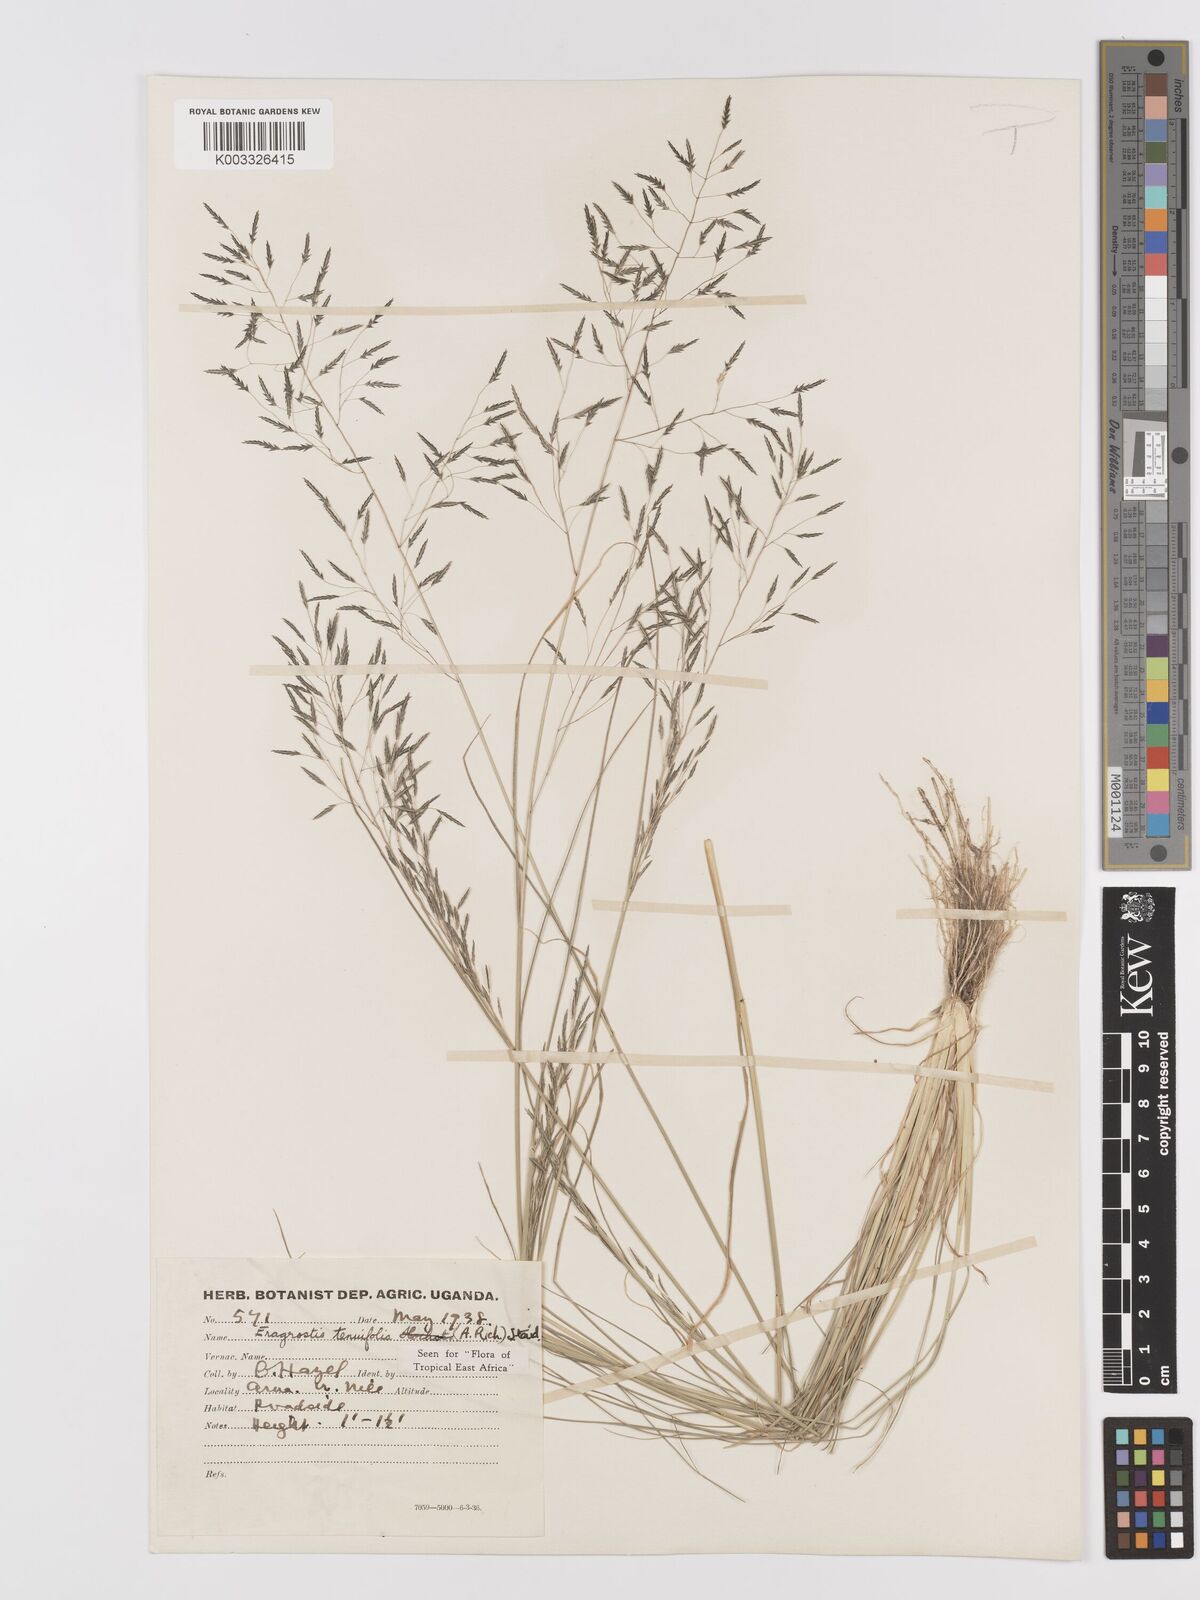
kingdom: Plantae
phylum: Tracheophyta
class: Liliopsida
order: Poales
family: Poaceae
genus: Eragrostis
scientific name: Eragrostis tenuifolia
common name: Elastic grass
